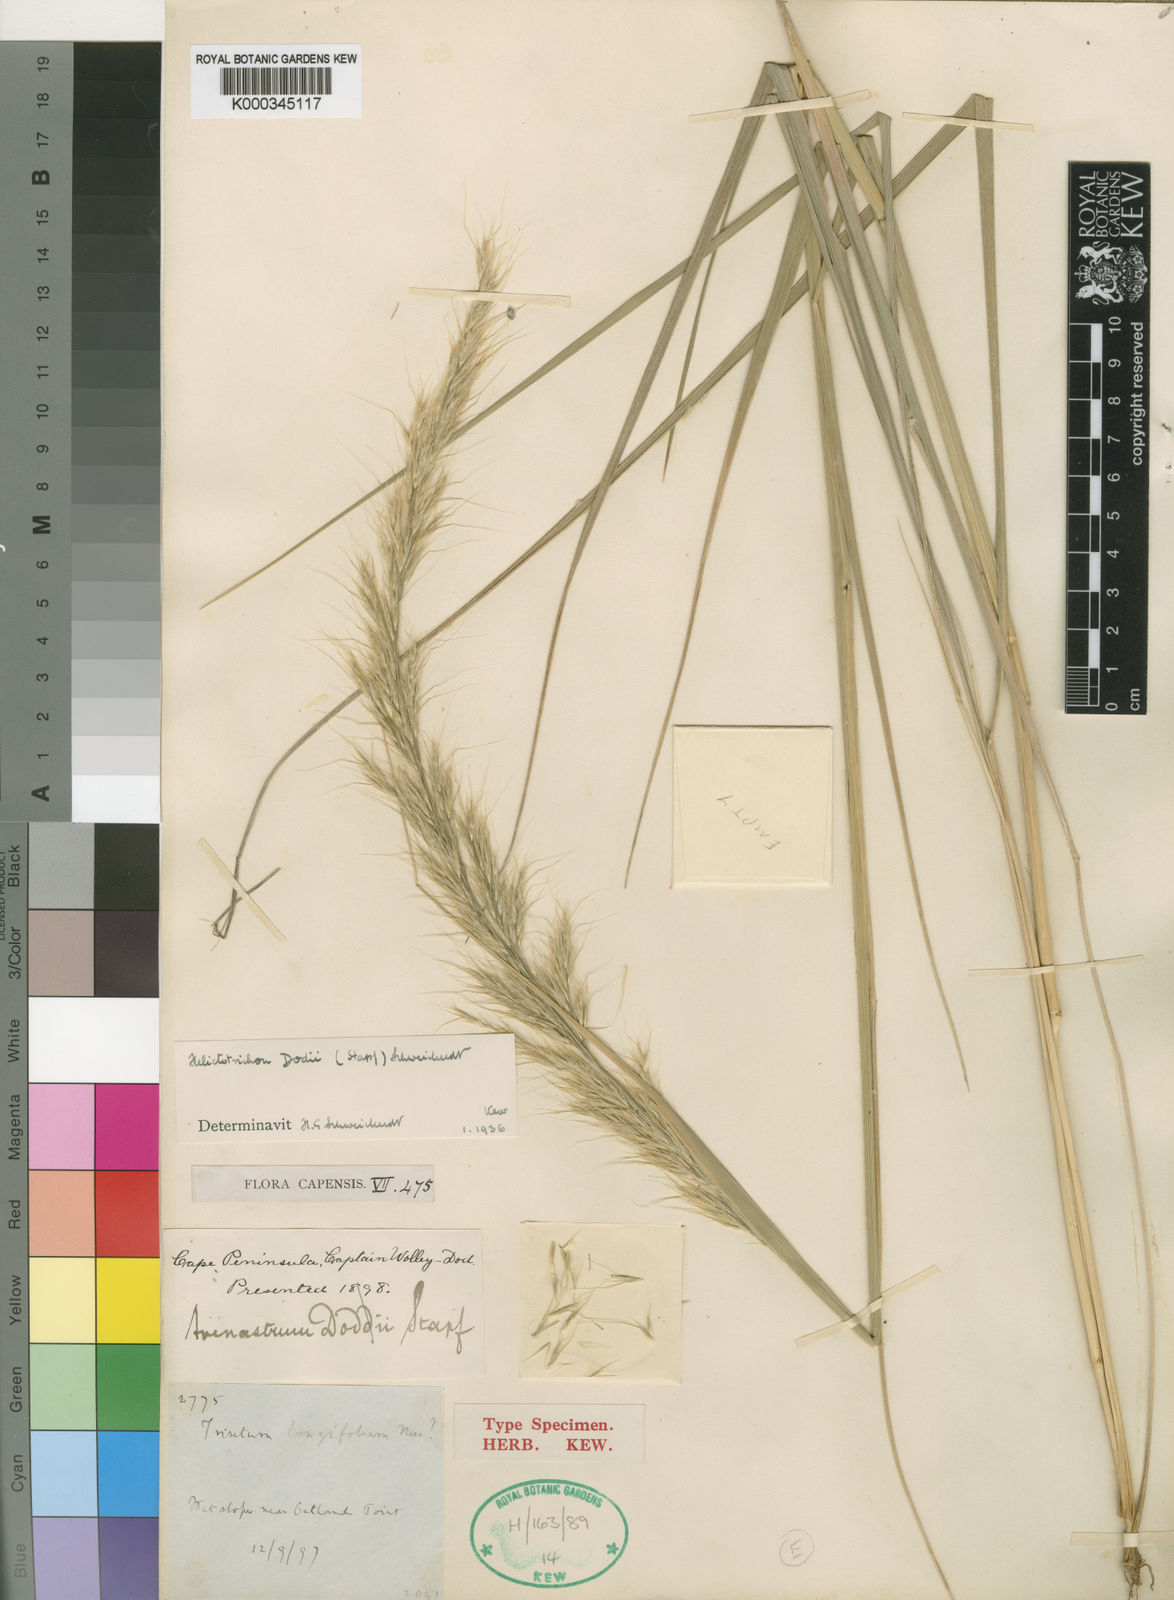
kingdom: Plantae
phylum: Tracheophyta
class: Liliopsida
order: Poales
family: Poaceae
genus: Trisetopsis
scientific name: Trisetopsis dodii
